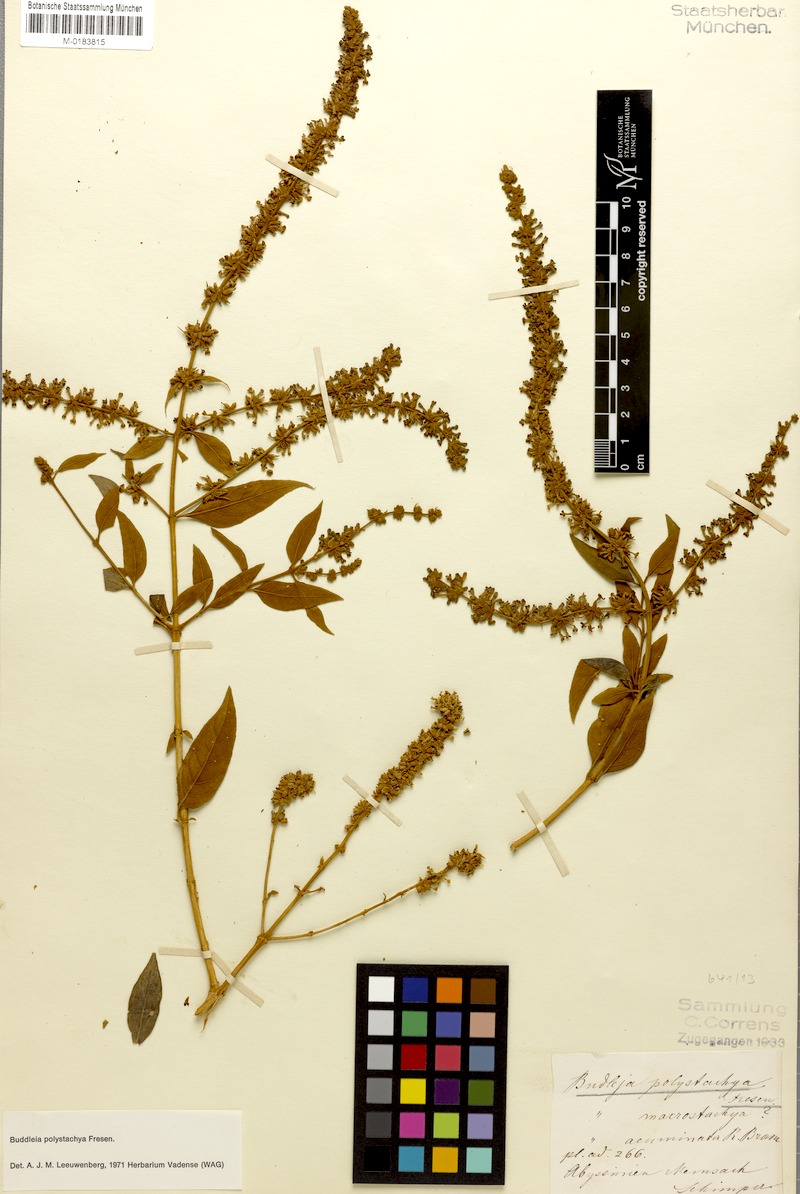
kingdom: Plantae
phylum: Tracheophyta
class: Magnoliopsida
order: Lamiales
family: Scrophulariaceae
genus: Buddleja
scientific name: Buddleja polystachya
